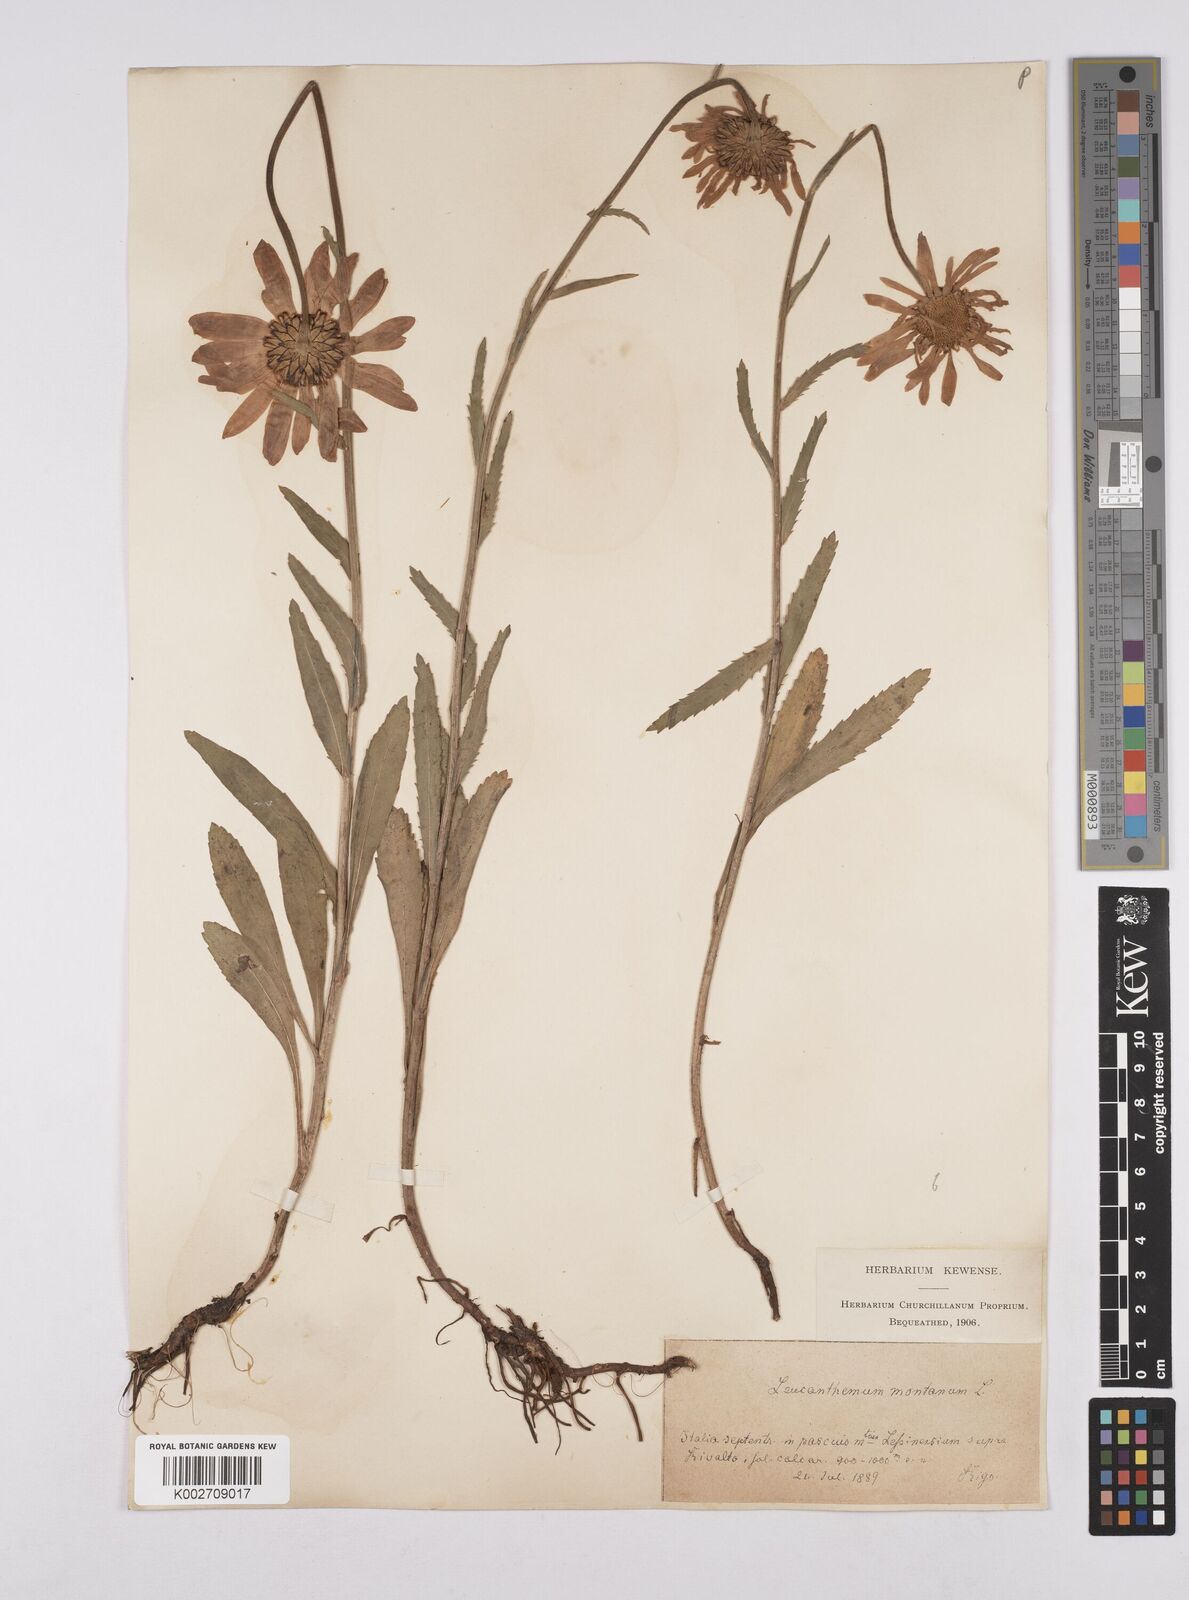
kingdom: Plantae
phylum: Tracheophyta
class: Magnoliopsida
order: Asterales
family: Asteraceae
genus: Leucanthemum
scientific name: Leucanthemum heterophyllum
